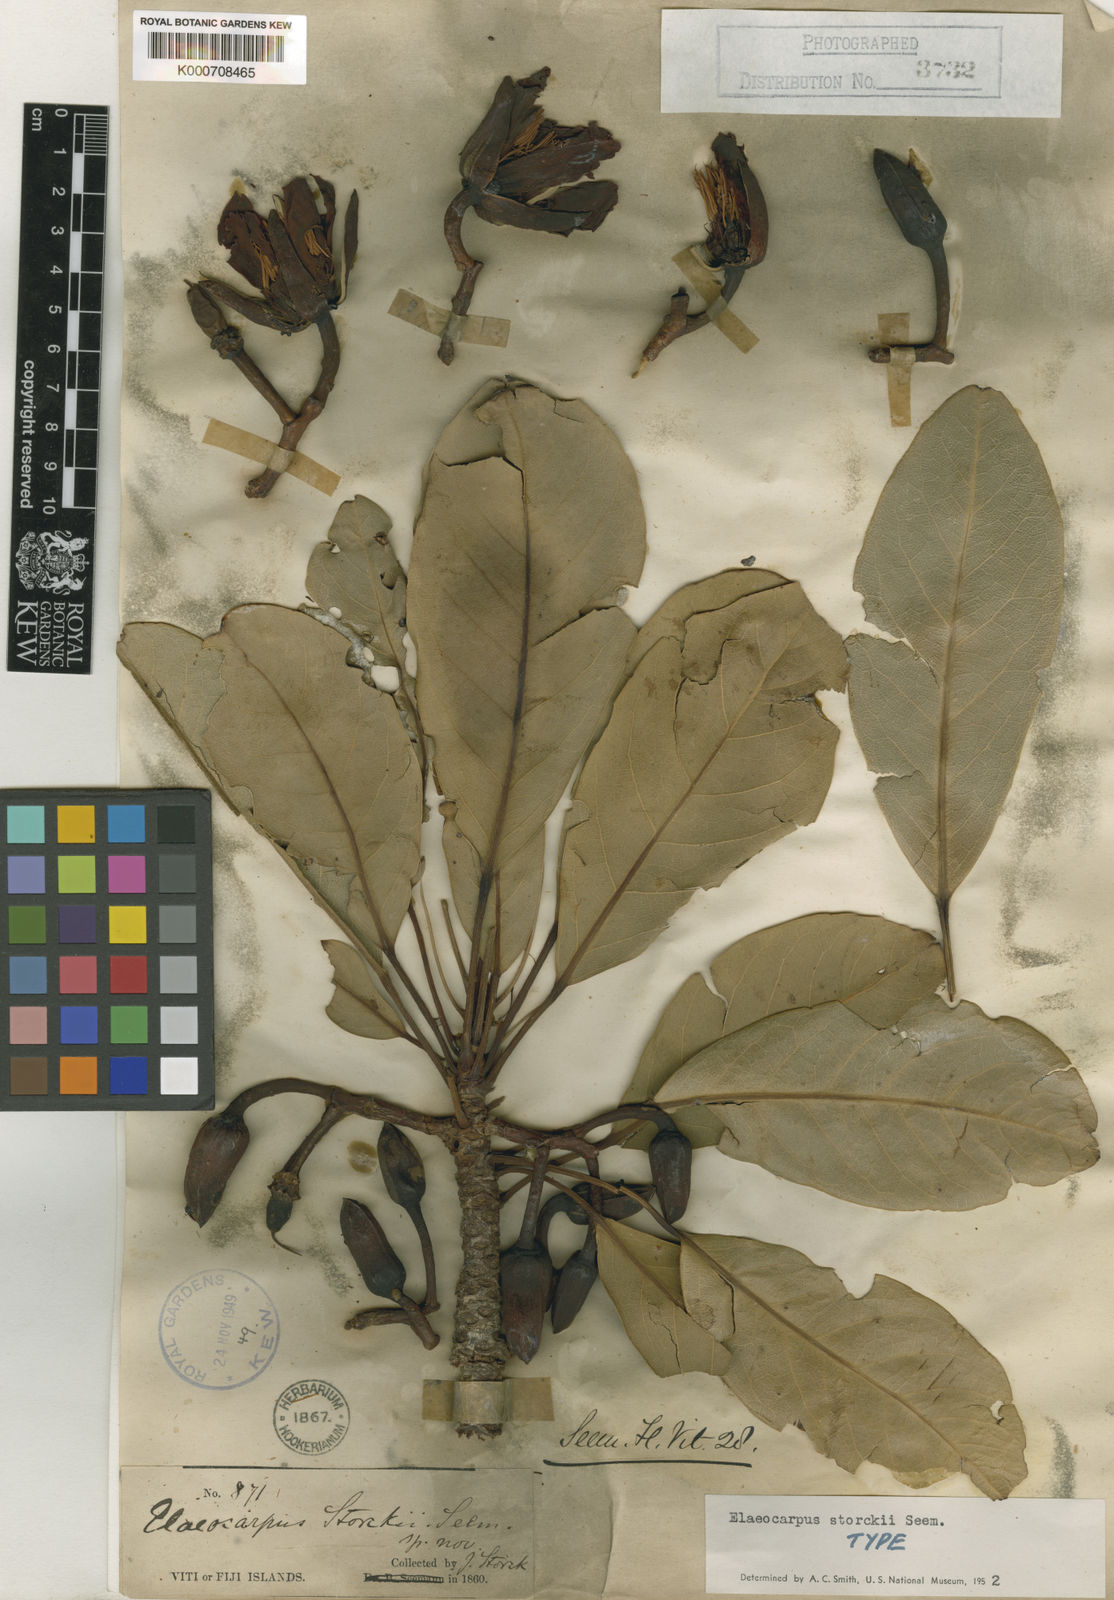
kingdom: Plantae
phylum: Tracheophyta
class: Magnoliopsida
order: Oxalidales
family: Elaeocarpaceae
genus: Elaeocarpus
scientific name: Elaeocarpus storckii
